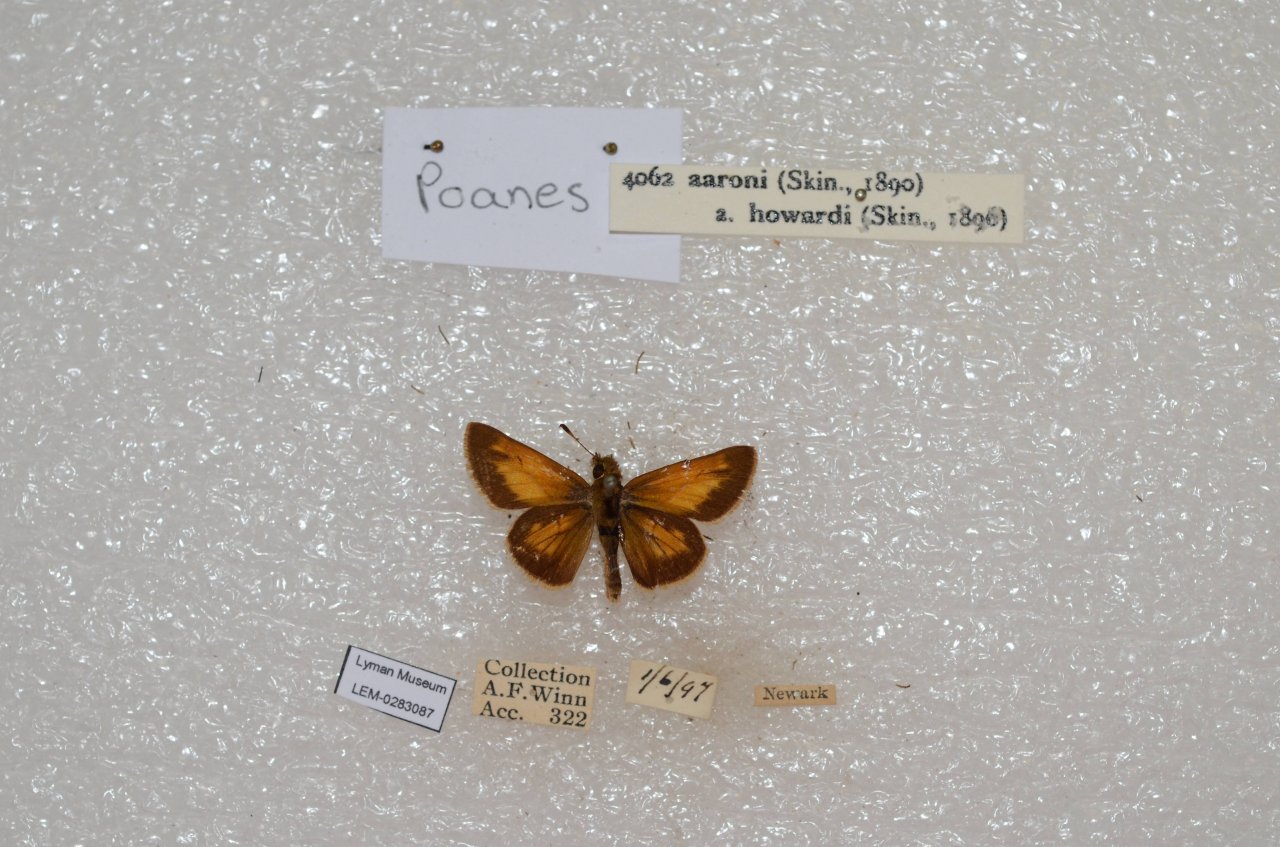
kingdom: Animalia
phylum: Arthropoda
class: Insecta
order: Lepidoptera
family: Hesperiidae
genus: Poanes
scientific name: Poanes aaroni
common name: Aaron's Skipper
